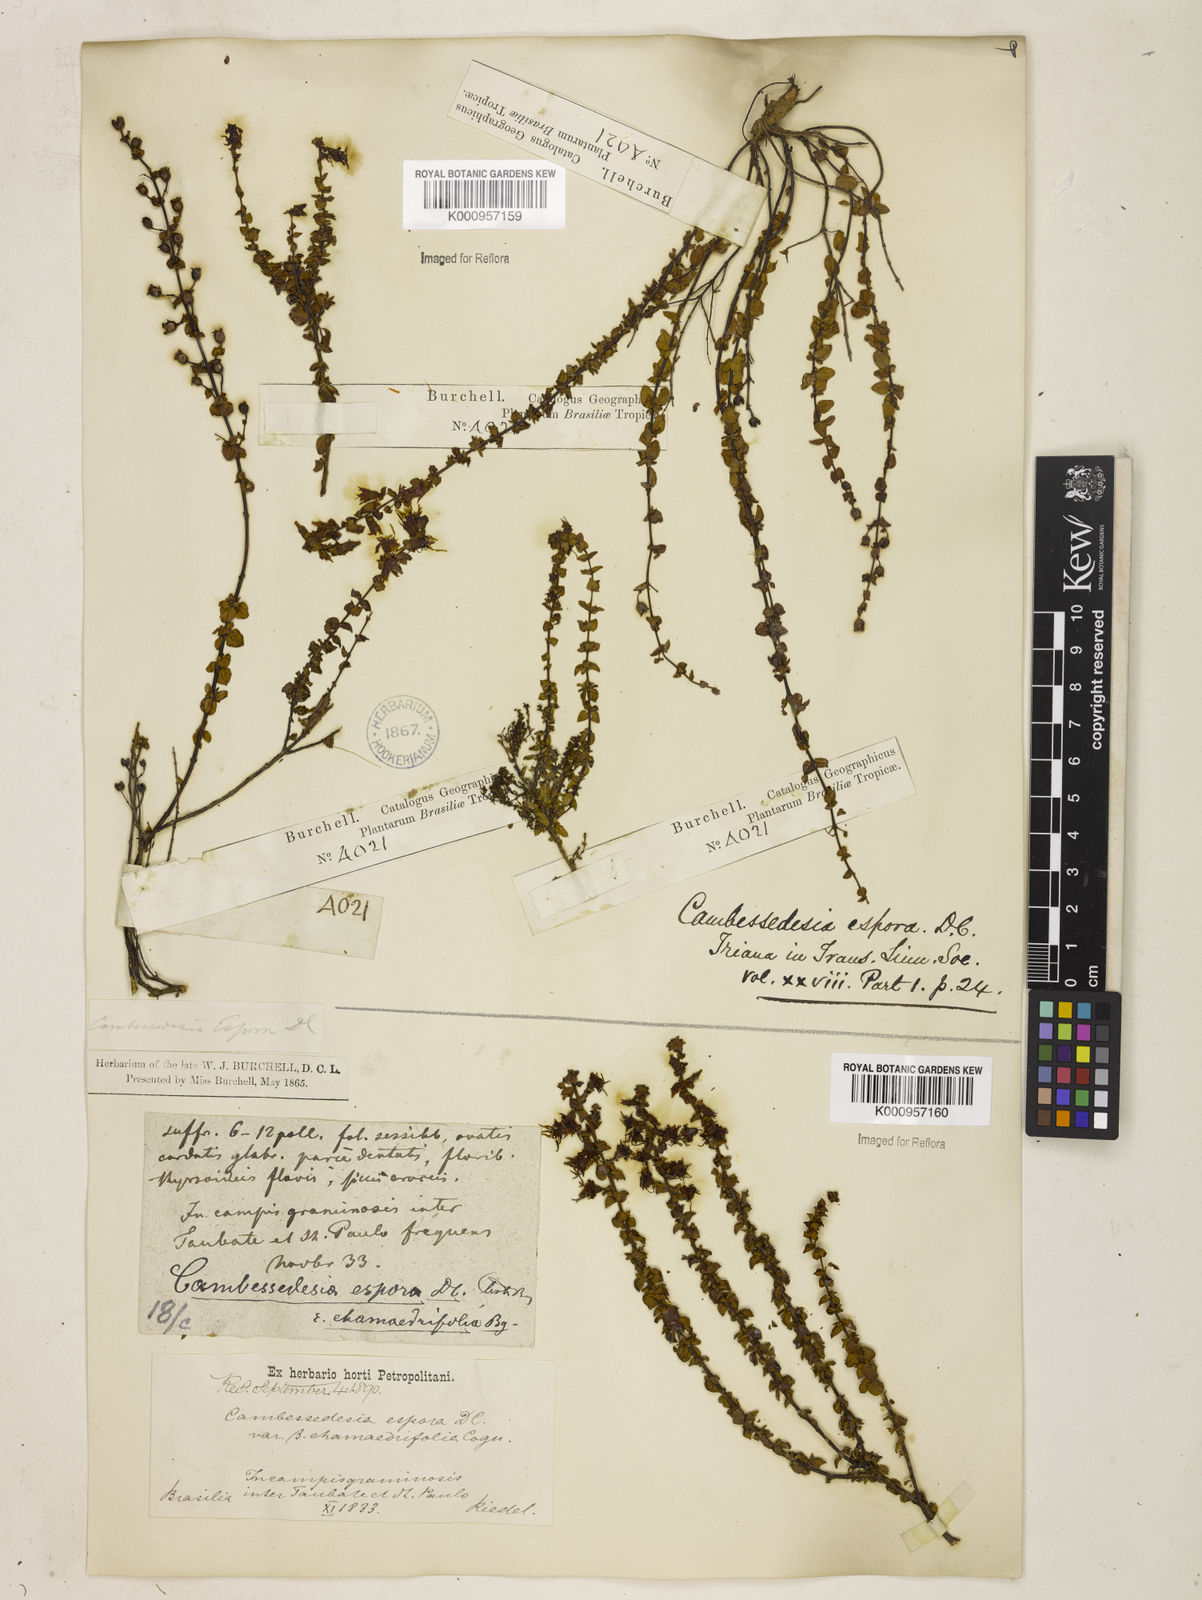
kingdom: Plantae
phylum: Tracheophyta
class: Magnoliopsida
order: Myrtales
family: Melastomataceae
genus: Cambessedesia
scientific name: Cambessedesia espora
